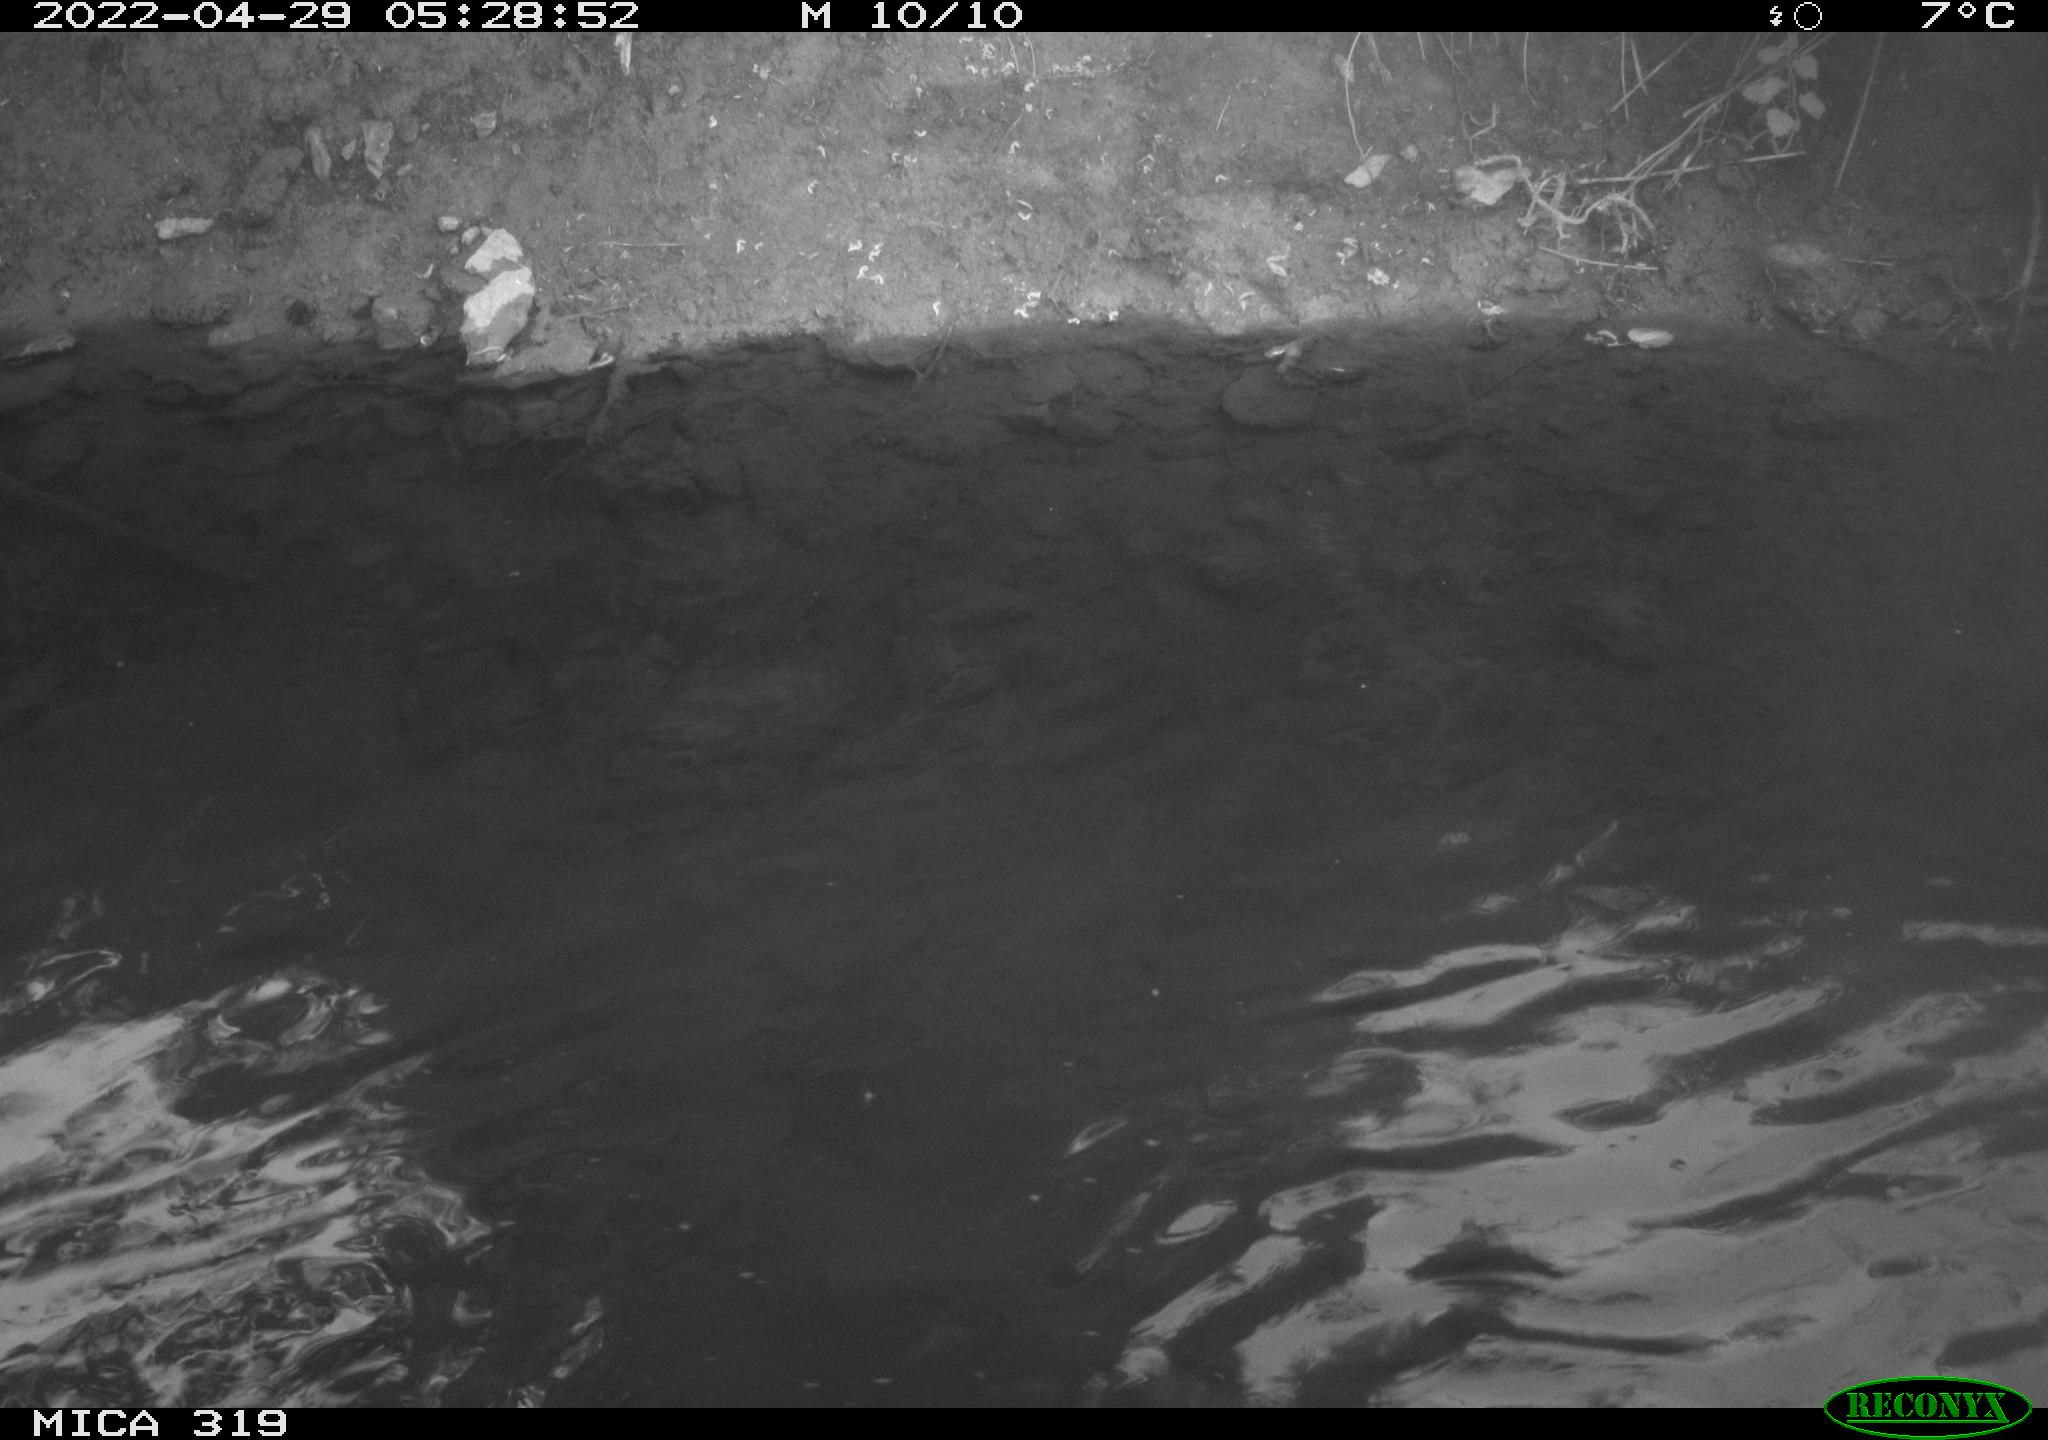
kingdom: Animalia
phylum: Chordata
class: Aves
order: Anseriformes
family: Anatidae
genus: Anas
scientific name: Anas platyrhynchos
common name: Mallard
